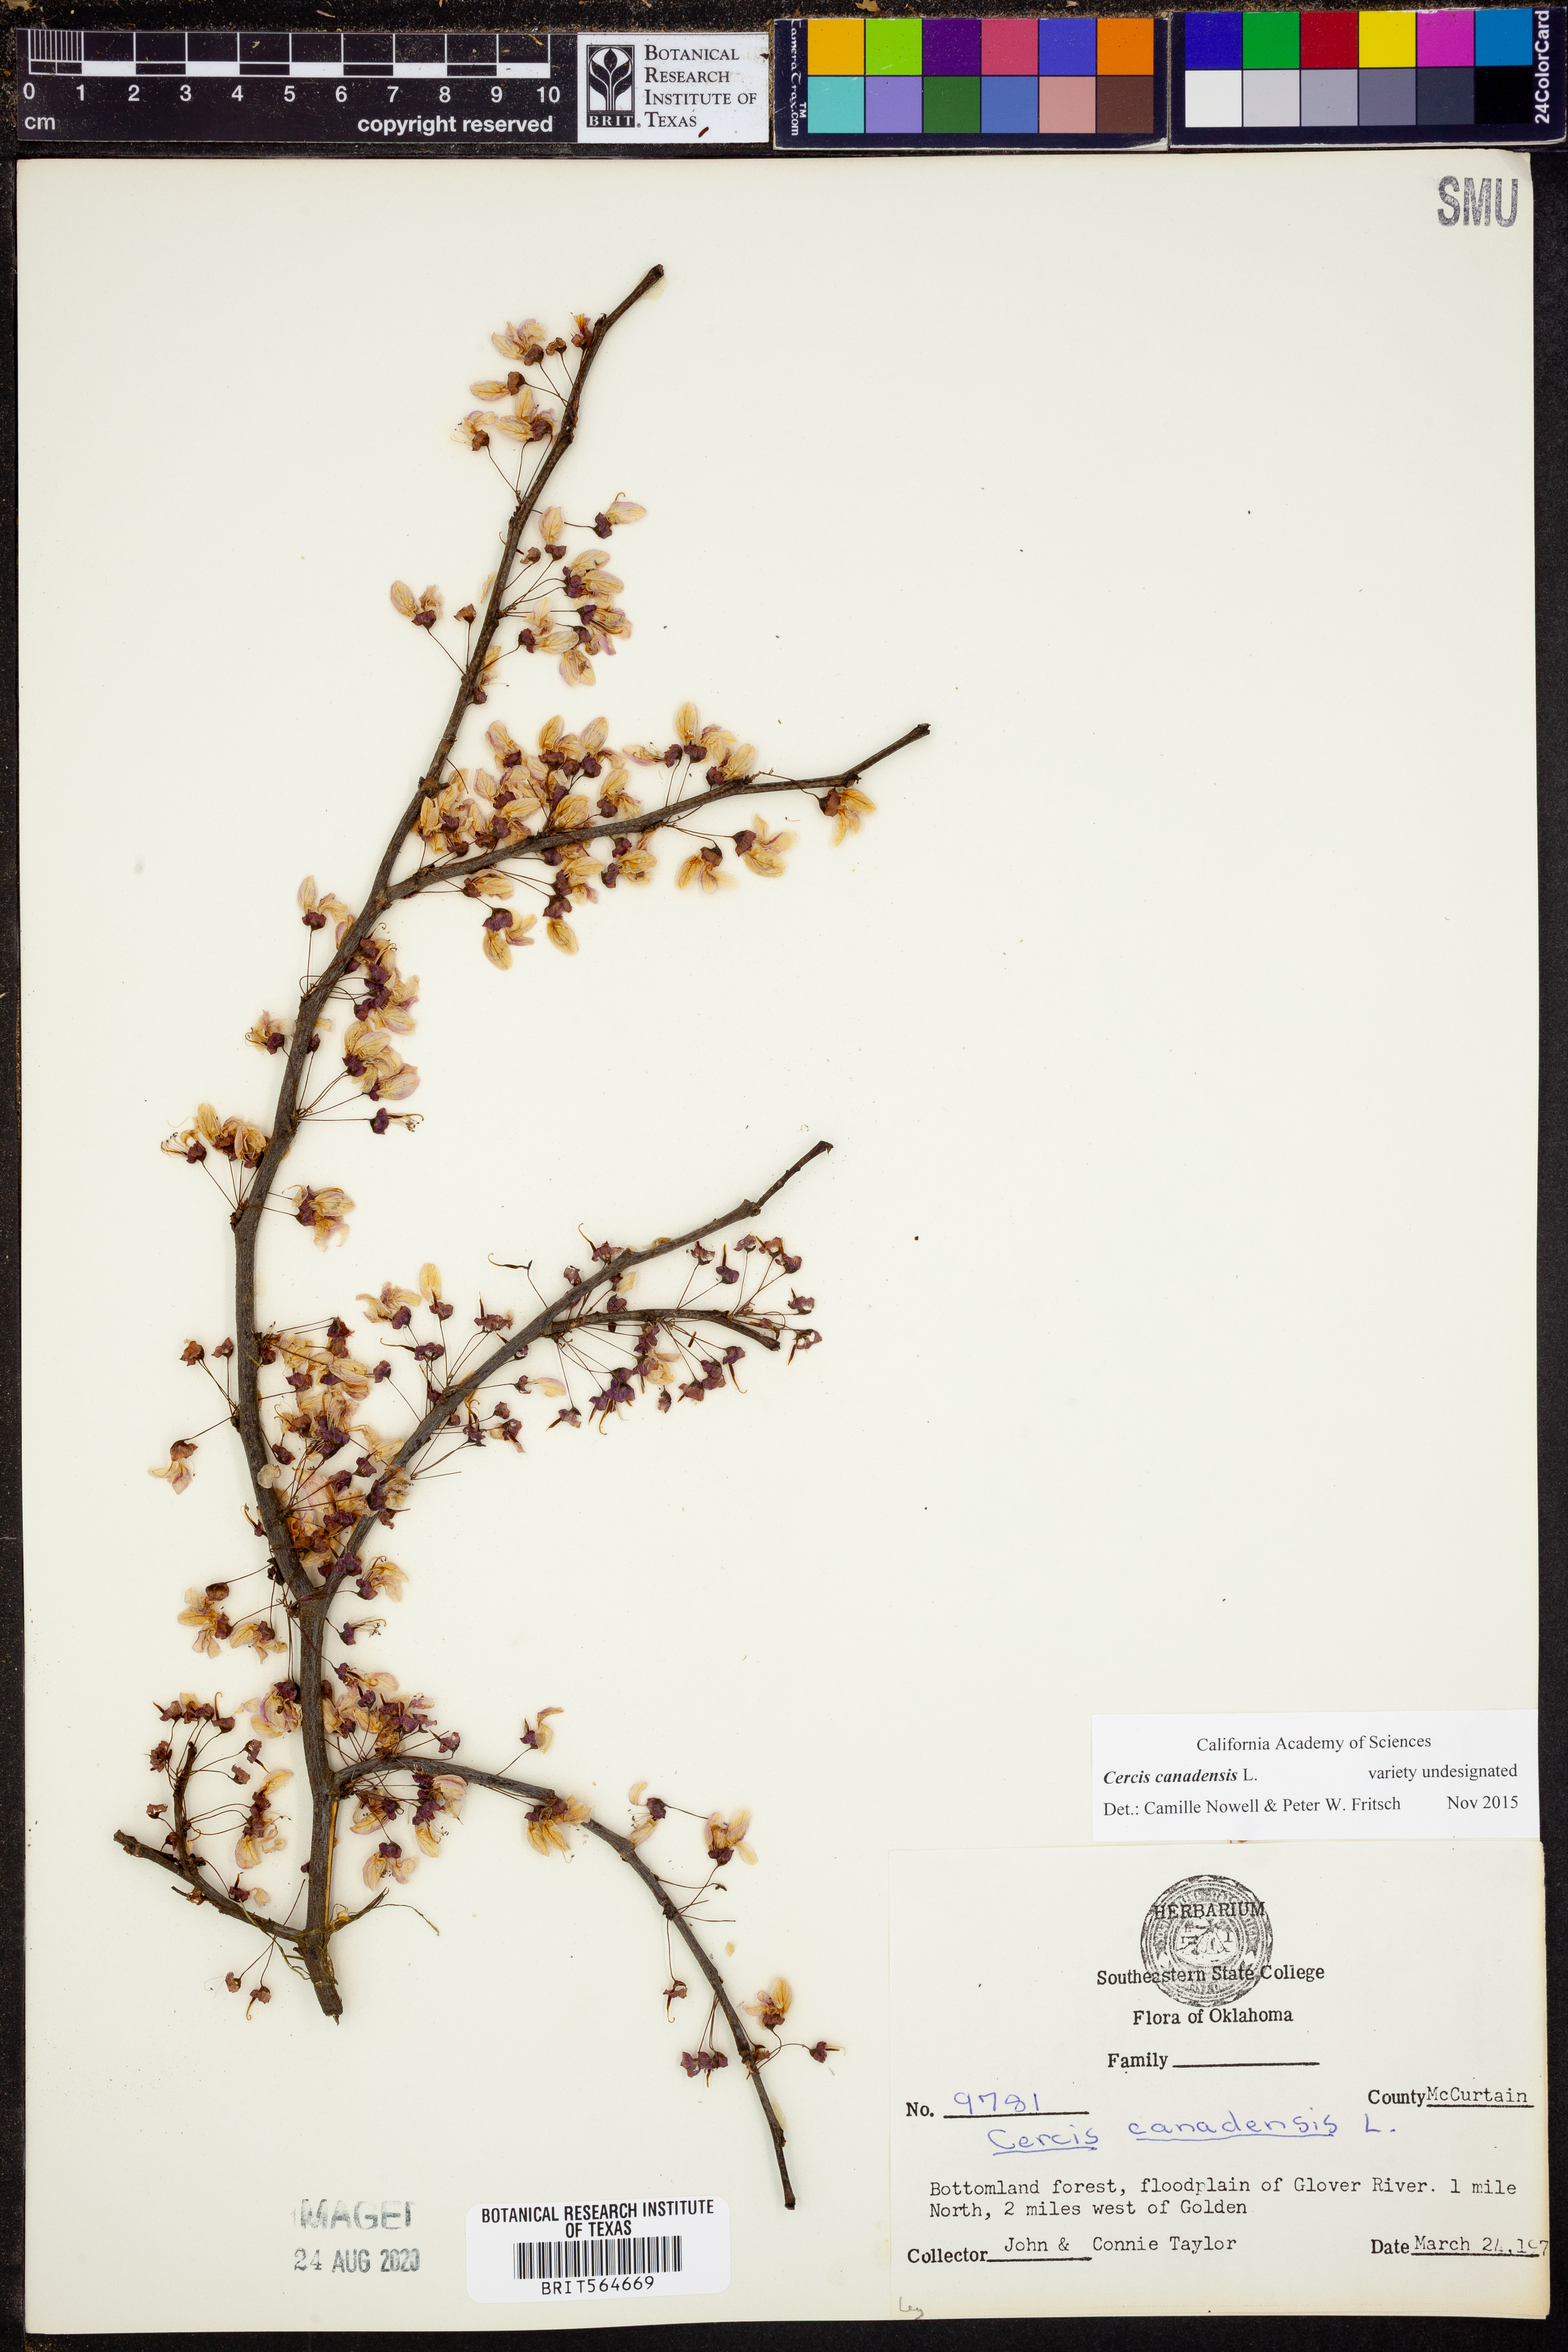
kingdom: Plantae
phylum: Tracheophyta
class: Magnoliopsida
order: Fabales
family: Fabaceae
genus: Cercis
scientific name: Cercis canadensis
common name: Eastern redbud
